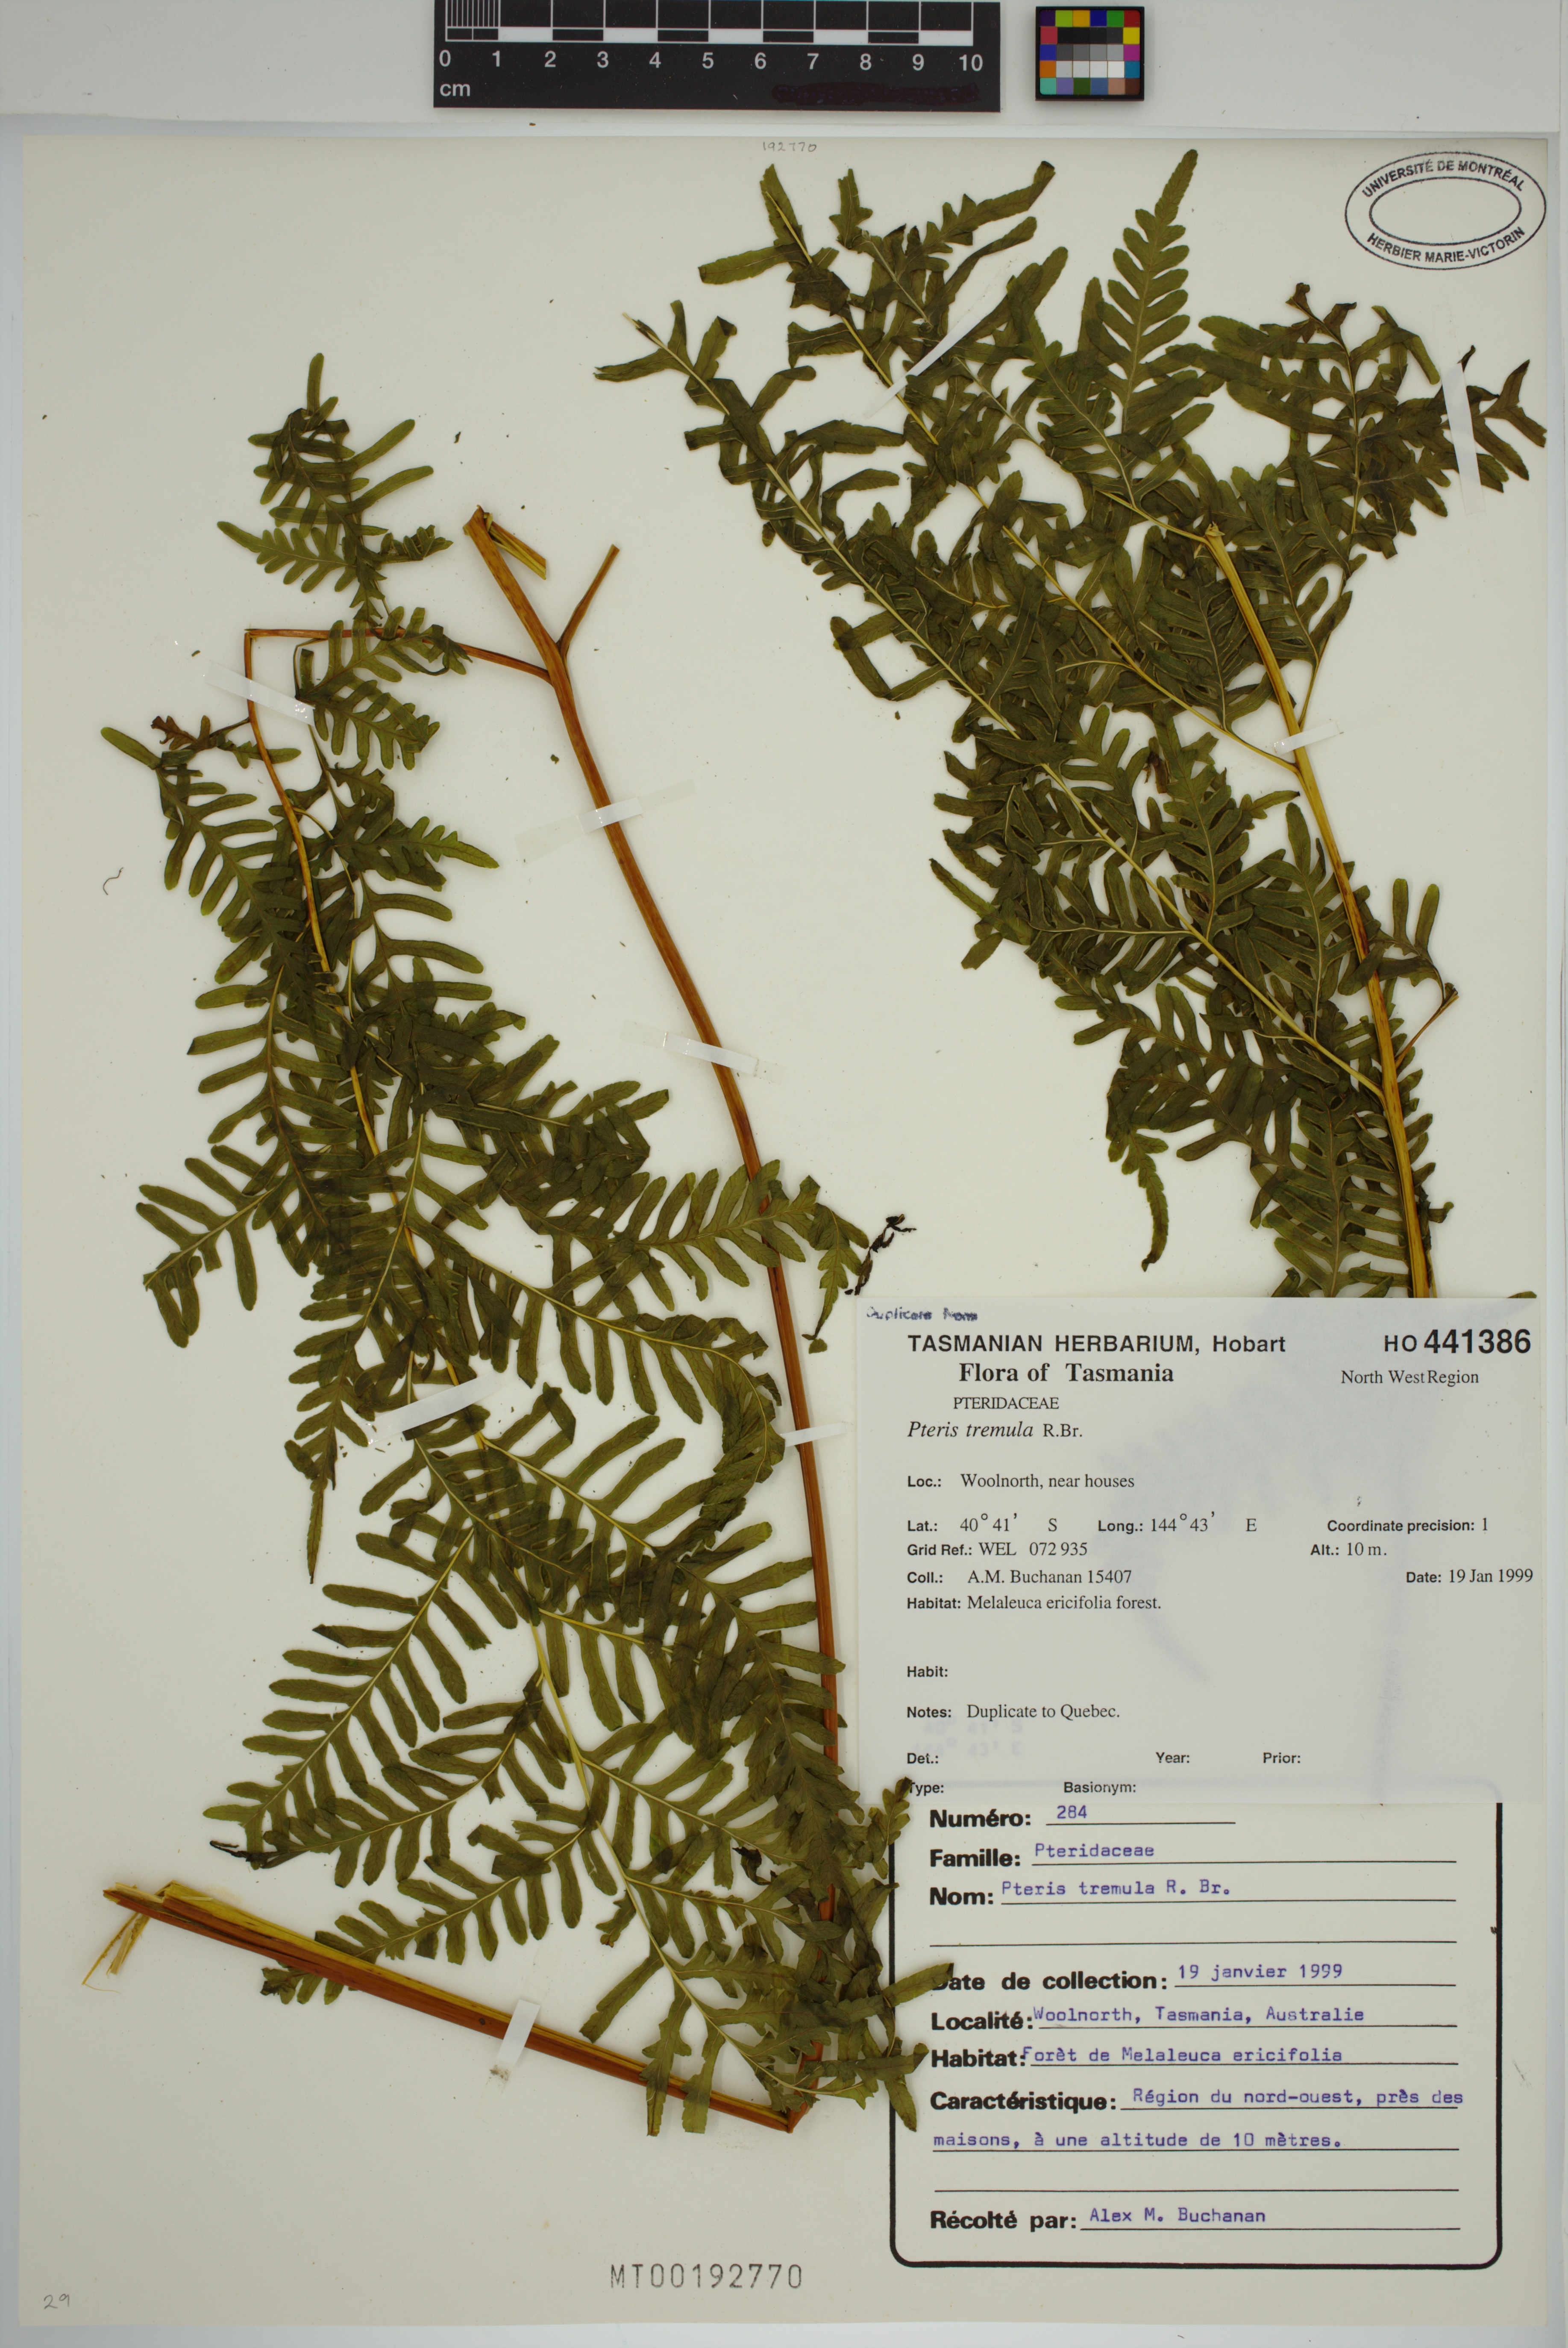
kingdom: Plantae
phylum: Tracheophyta
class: Polypodiopsida
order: Polypodiales
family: Pteridaceae
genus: Pteris
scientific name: Pteris tremula
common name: Australian brake
